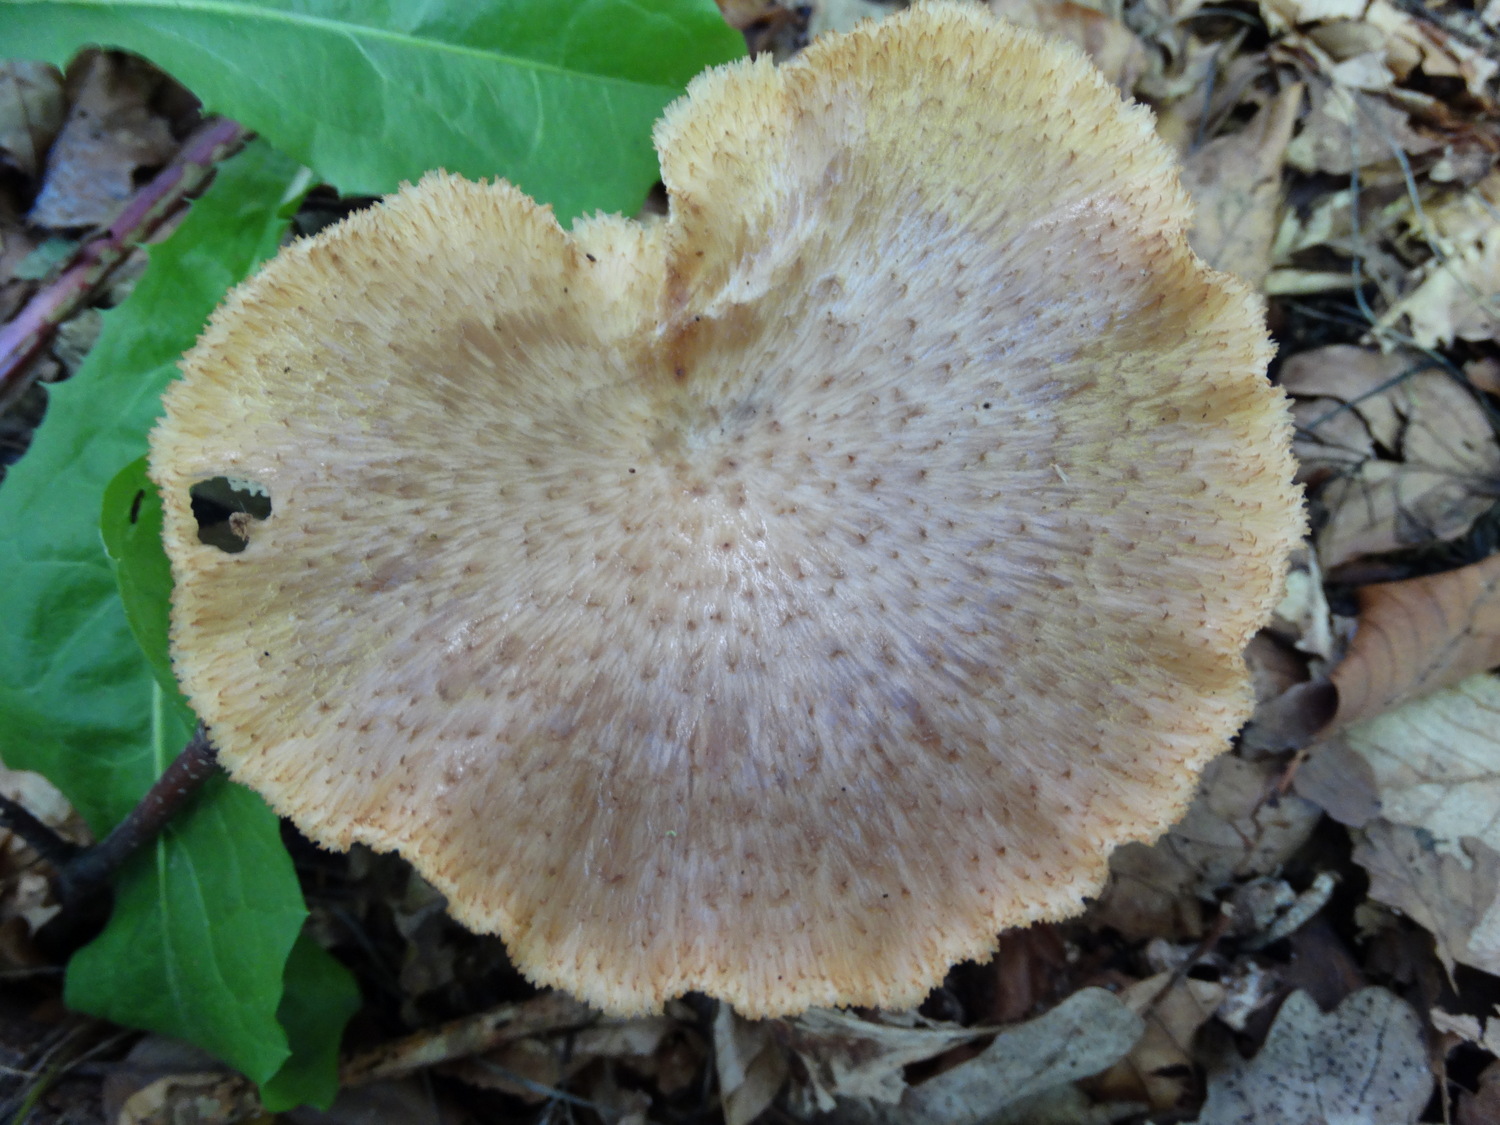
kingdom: Fungi
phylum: Basidiomycota
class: Agaricomycetes
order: Polyporales
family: Polyporaceae
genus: Polyporus
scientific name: Polyporus tuberaster
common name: knoldet stilkporesvamp
